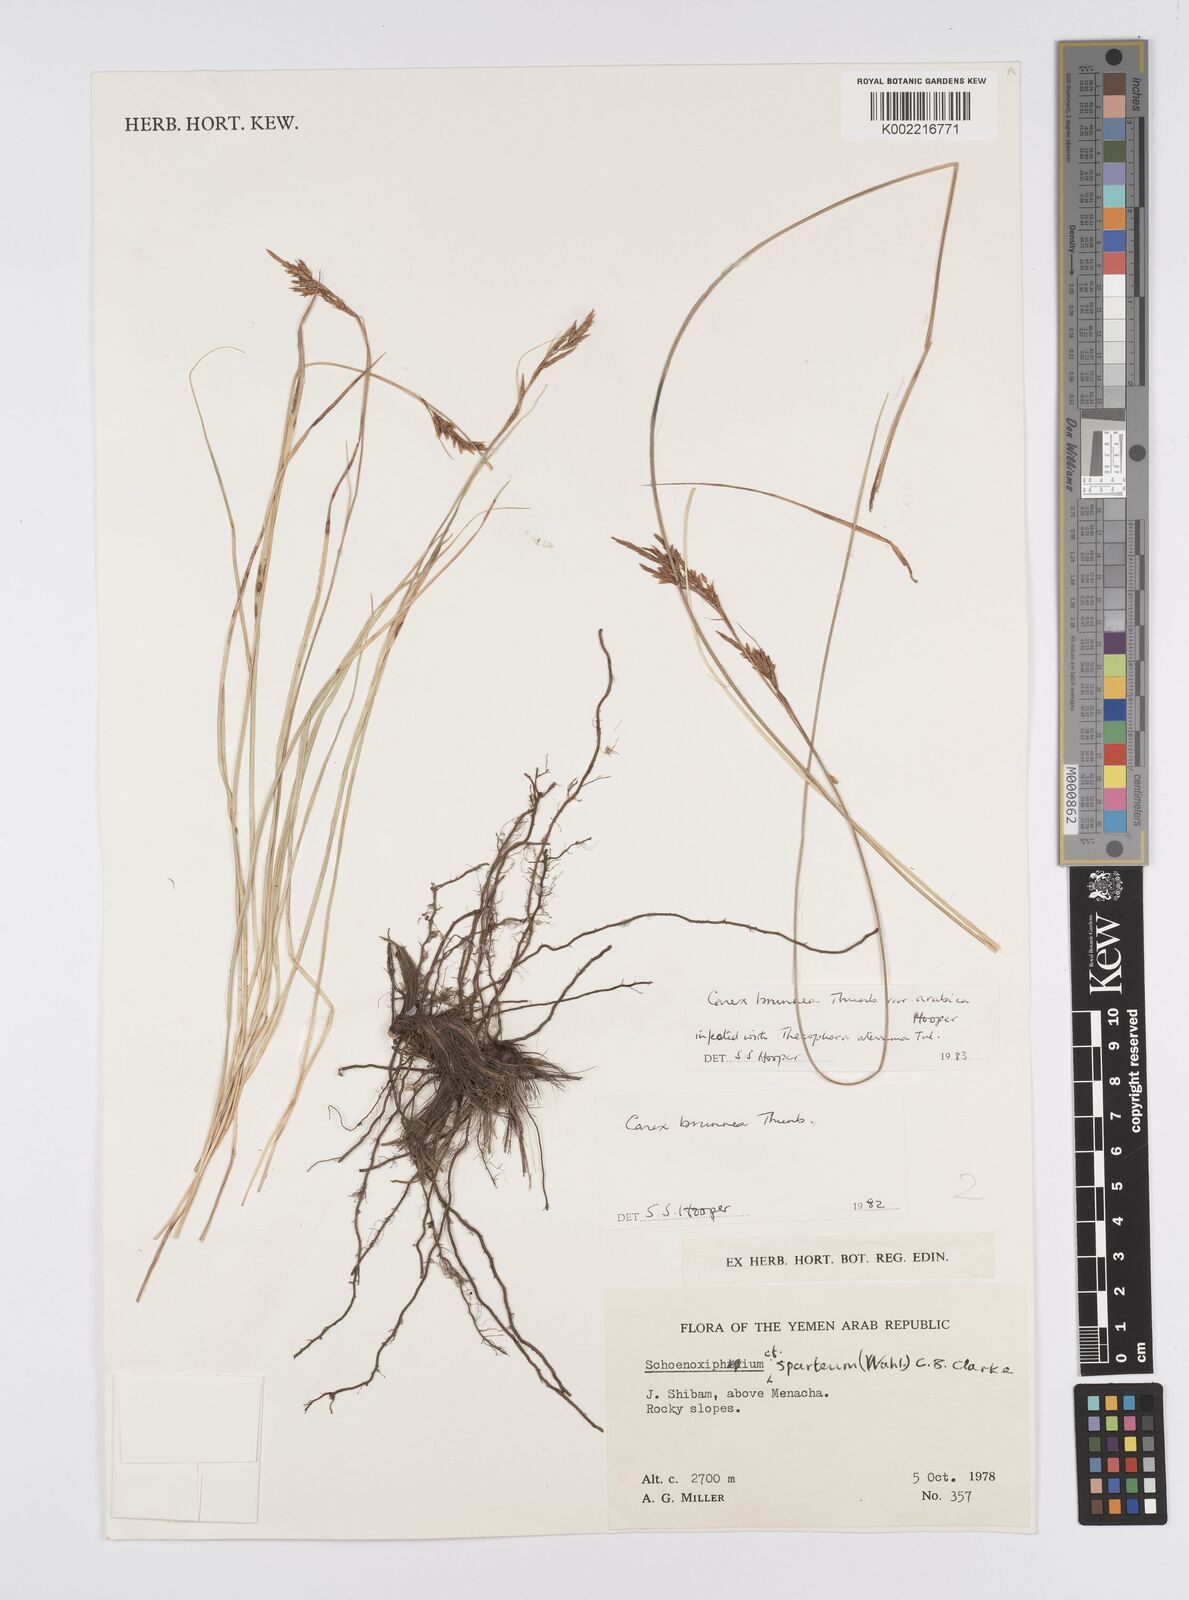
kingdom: Plantae
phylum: Tracheophyta
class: Liliopsida
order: Poales
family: Cyperaceae
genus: Carex
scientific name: Carex brunnea
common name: Greater brown sedge
